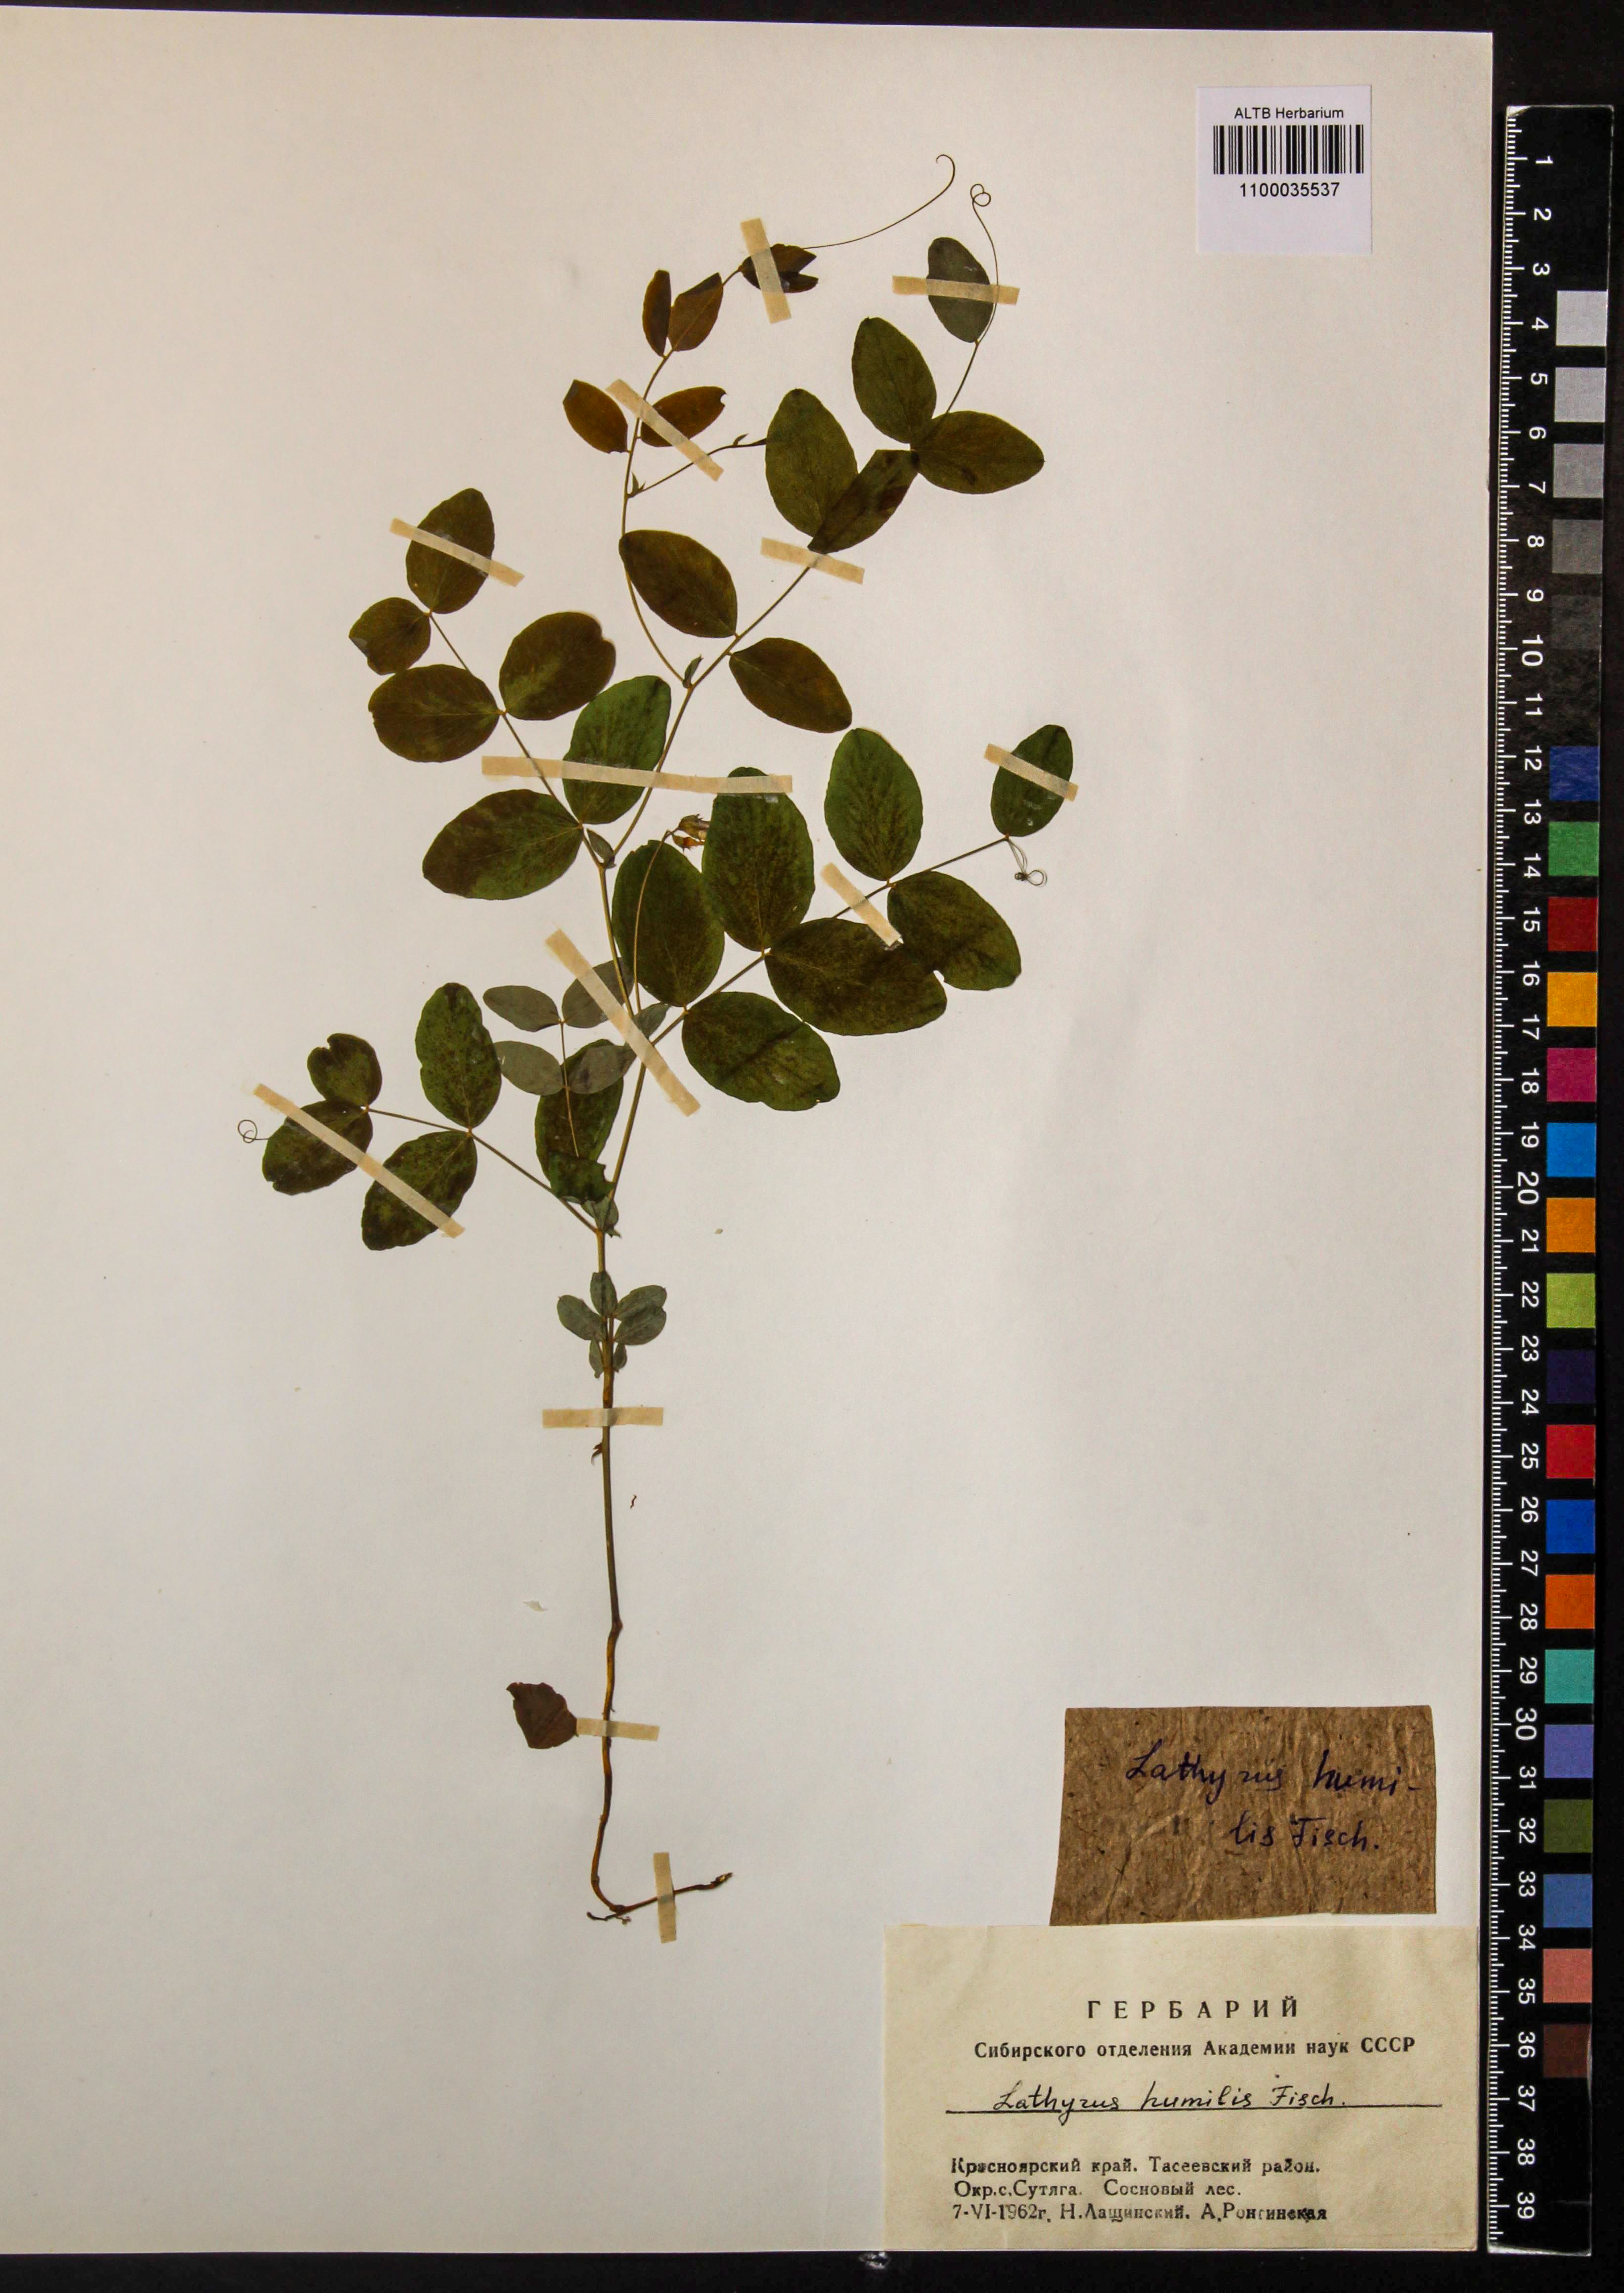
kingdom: Plantae
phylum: Tracheophyta
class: Magnoliopsida
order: Fabales
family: Fabaceae
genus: Lathyrus
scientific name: Lathyrus humilis
